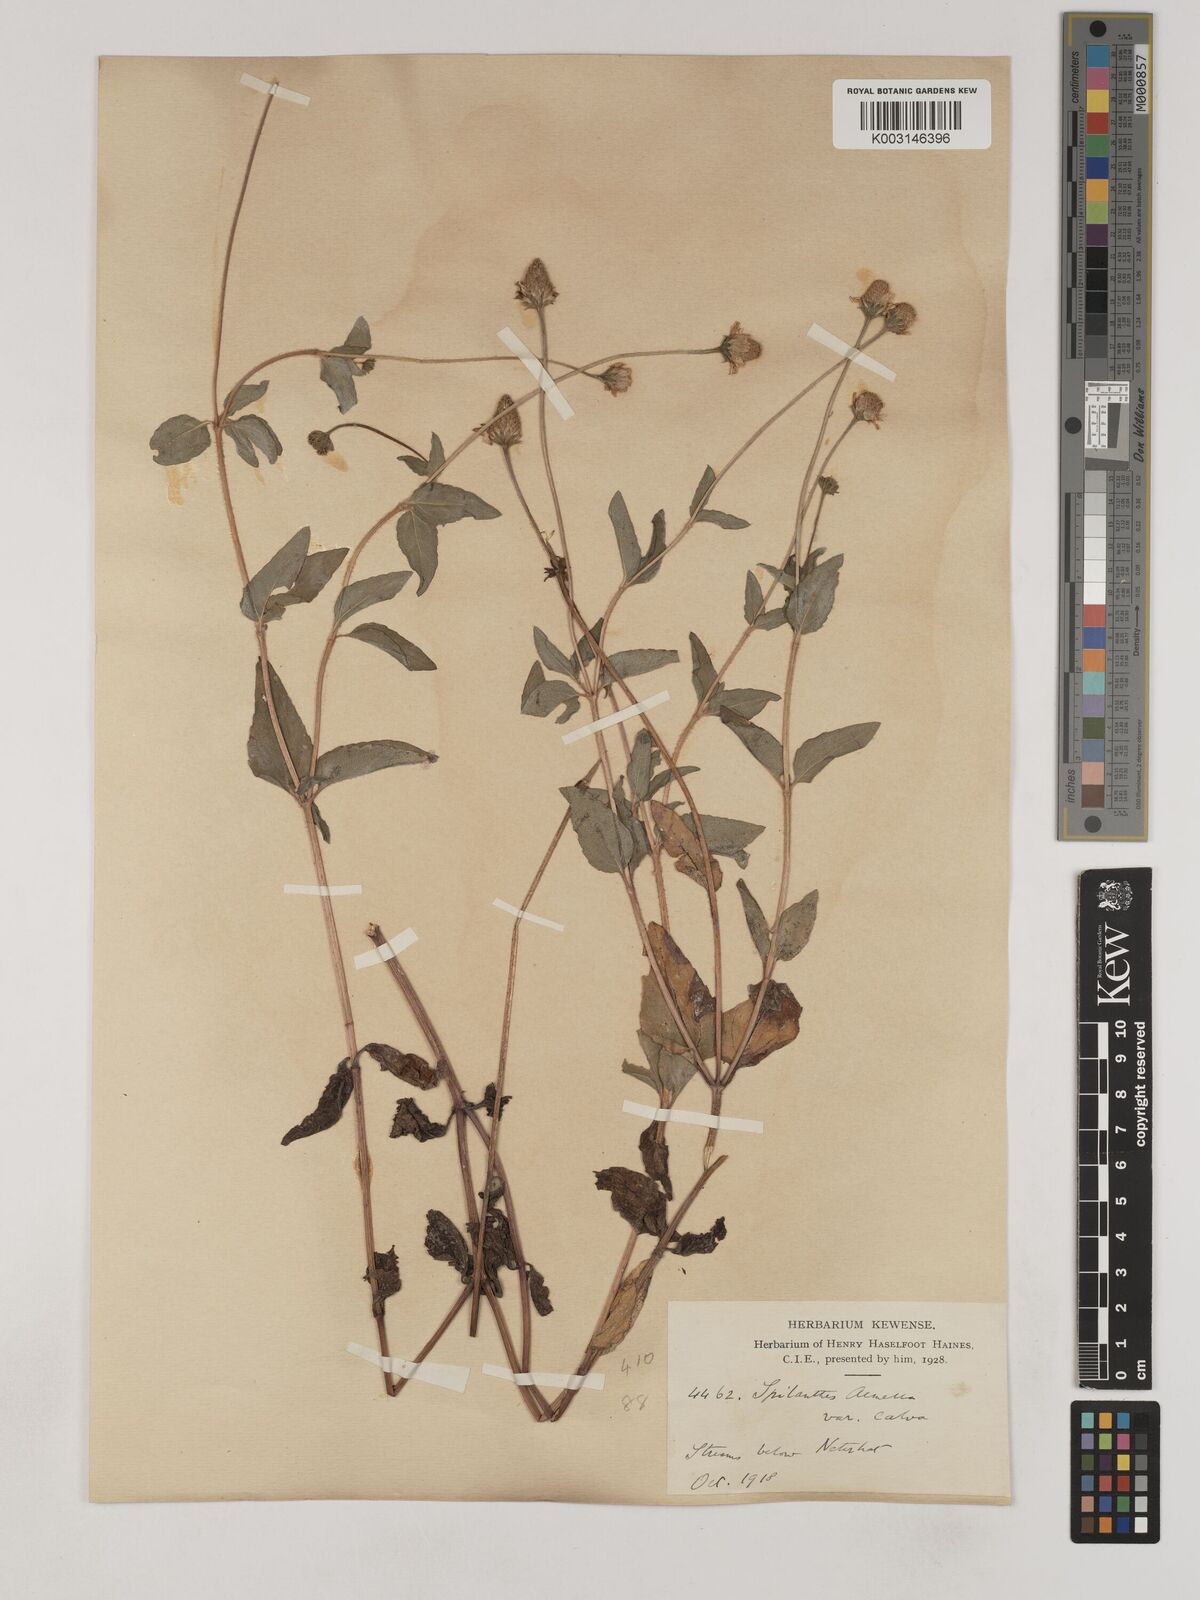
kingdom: Plantae
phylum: Tracheophyta
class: Magnoliopsida
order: Asterales
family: Asteraceae
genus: Acmella
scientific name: Acmella calva
